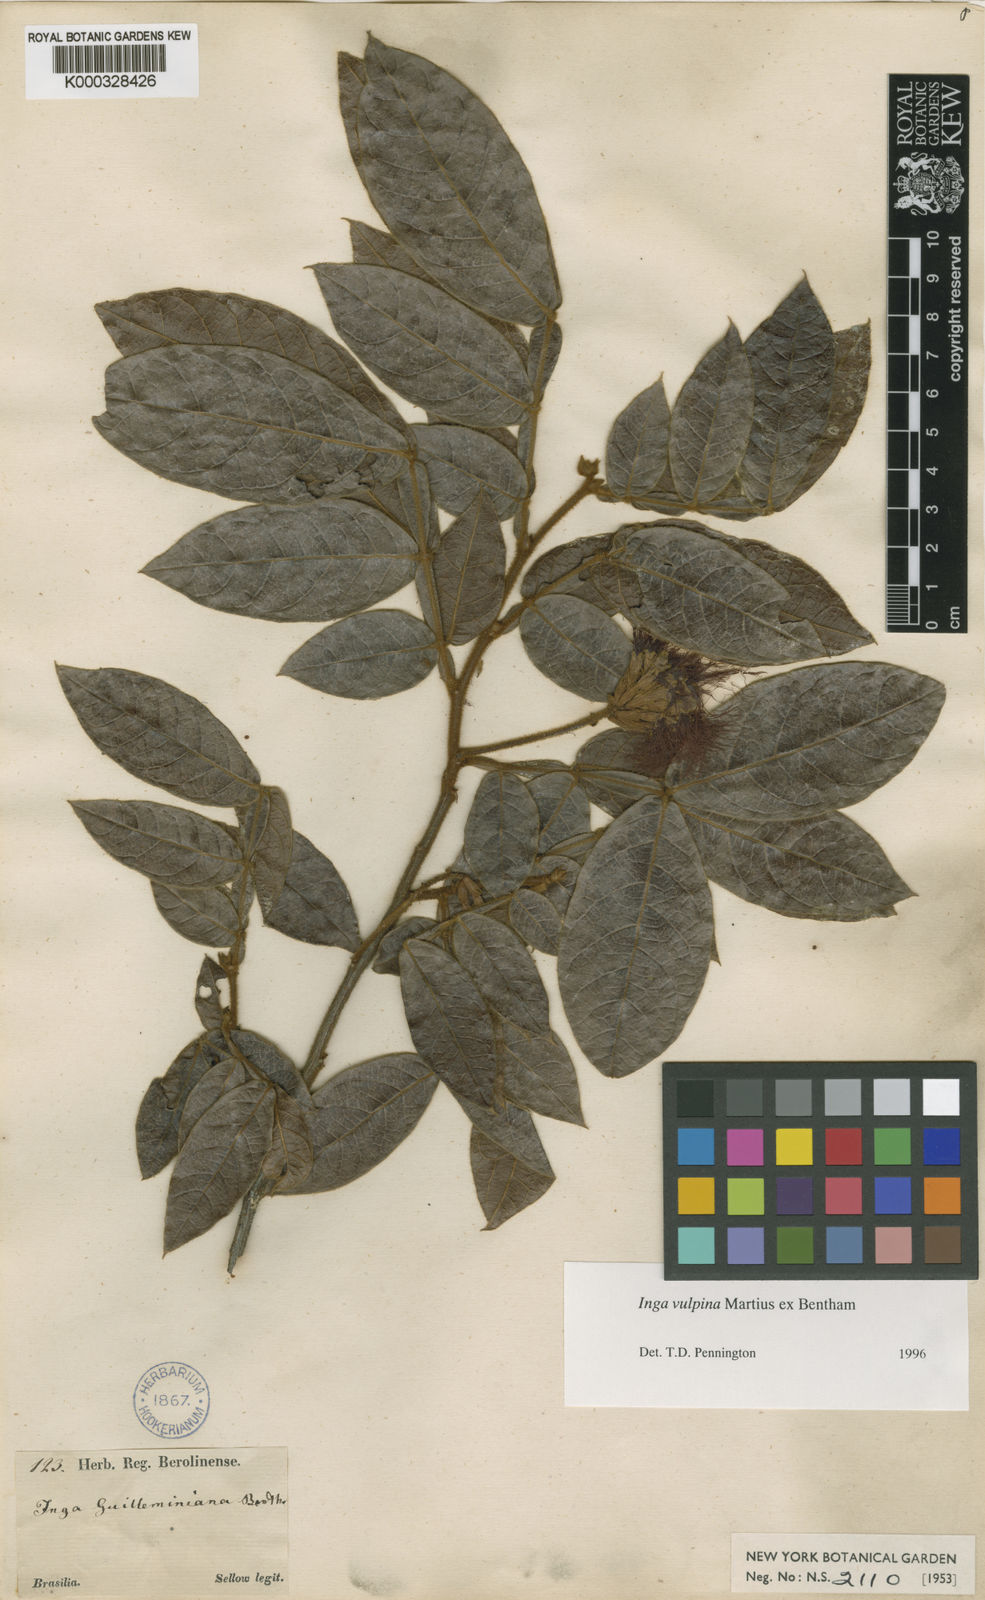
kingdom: Plantae
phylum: Tracheophyta
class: Magnoliopsida
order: Fabales
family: Fabaceae
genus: Inga
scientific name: Inga vulpina
